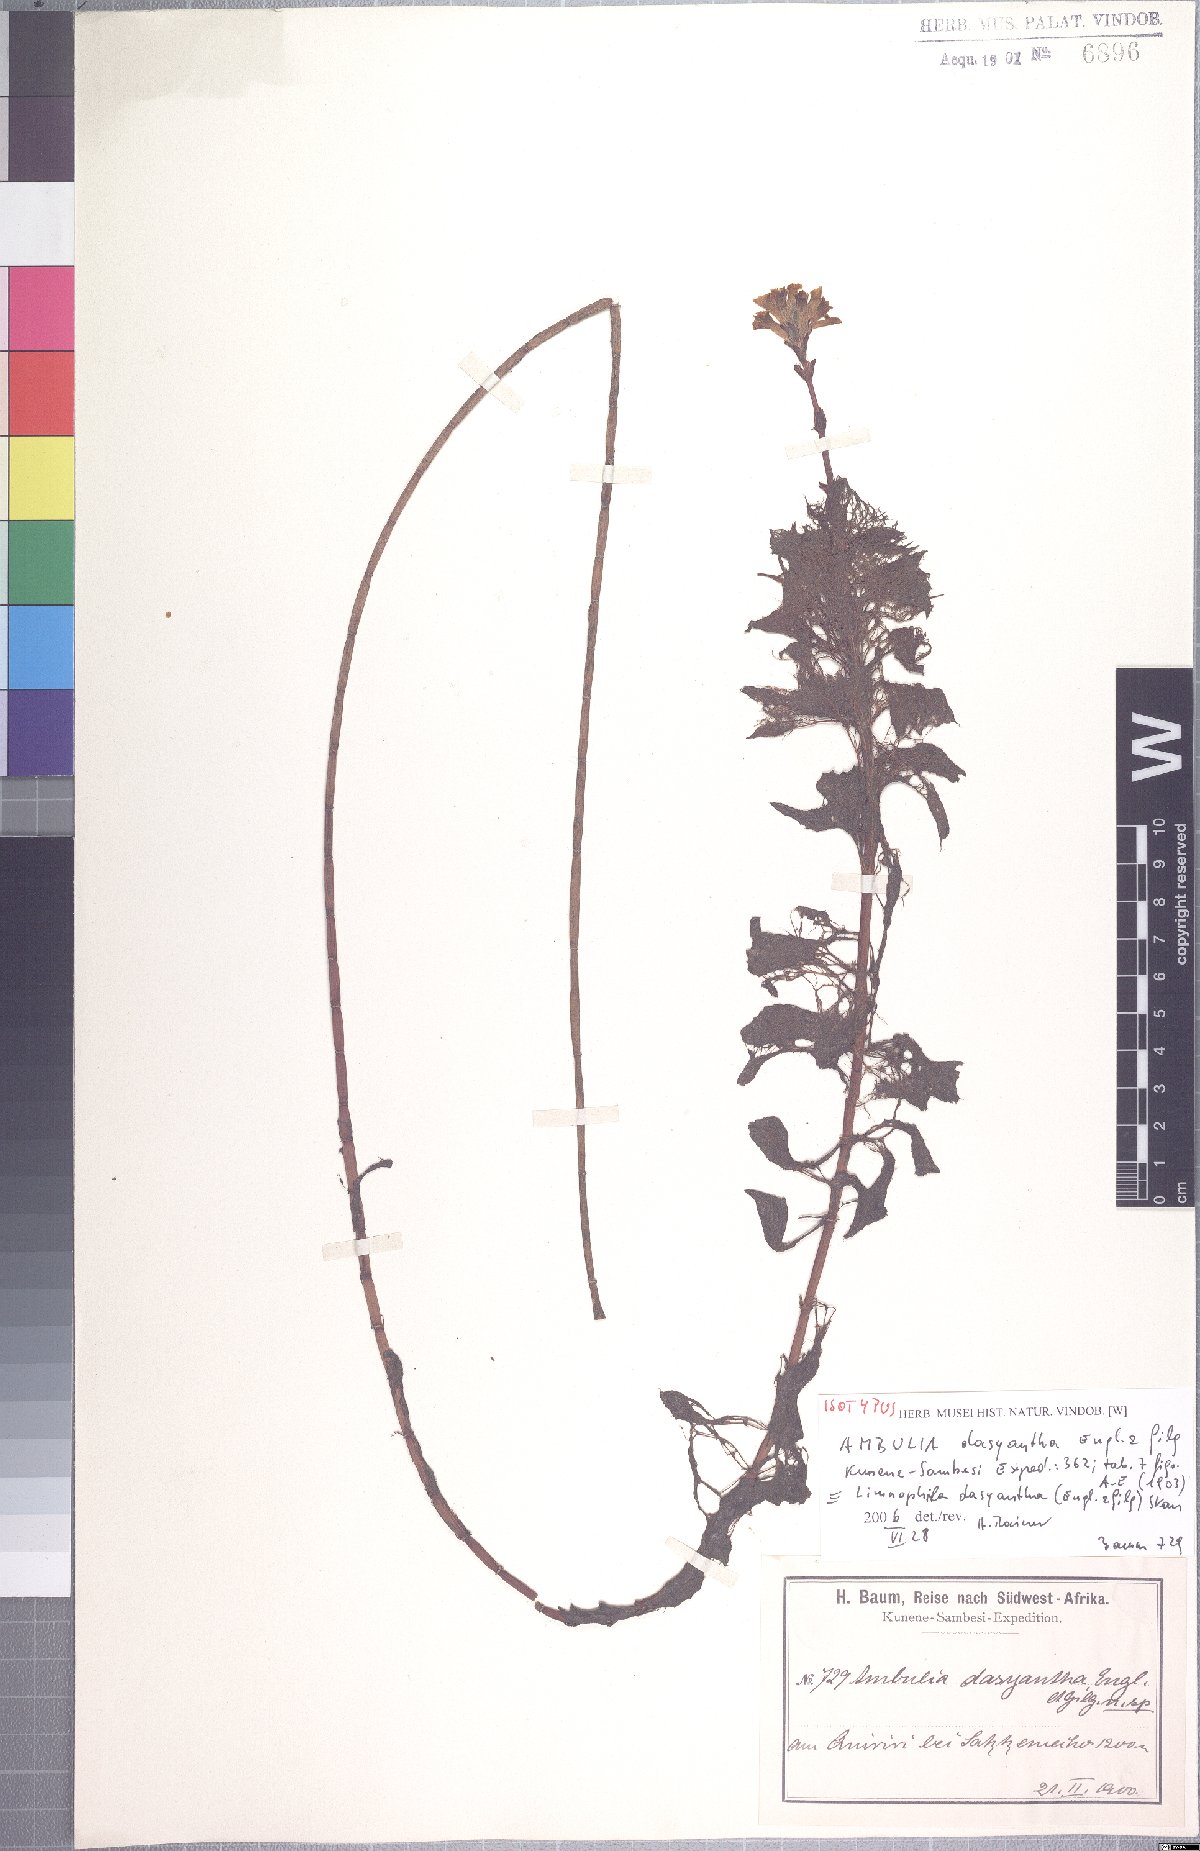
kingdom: Plantae
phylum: Tracheophyta
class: Magnoliopsida
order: Lamiales
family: Plantaginaceae
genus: Limnophila
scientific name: Limnophila dasyantha
